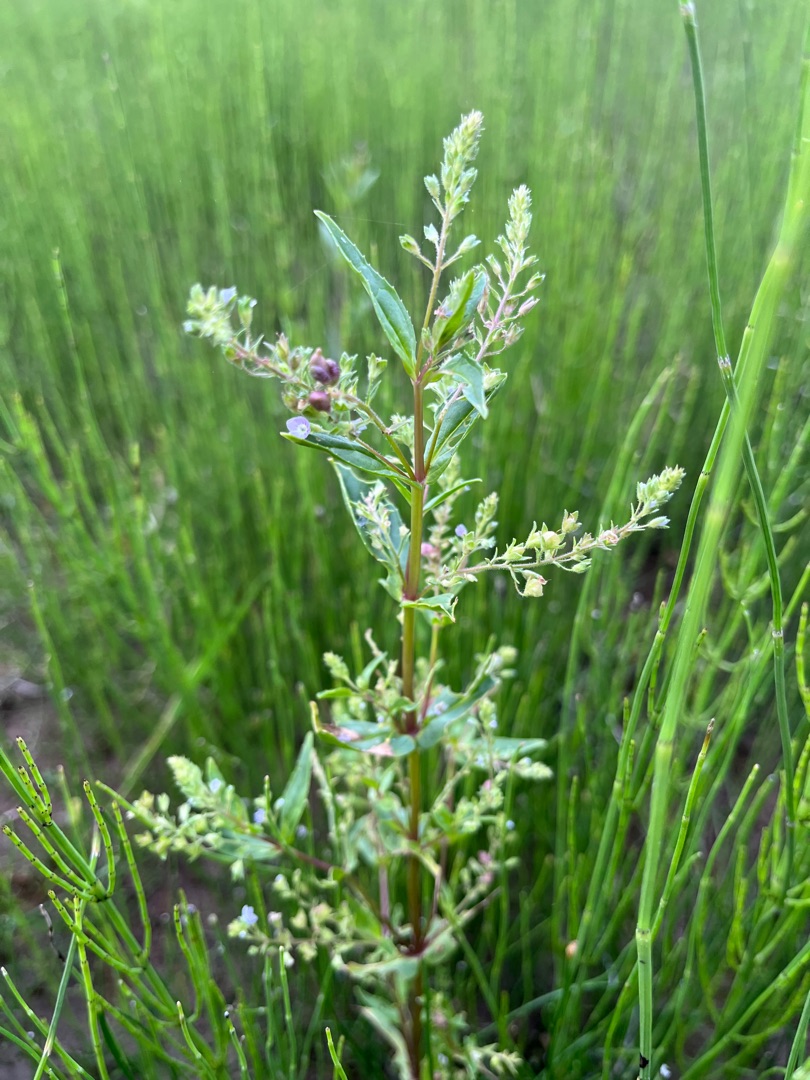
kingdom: Plantae
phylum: Tracheophyta
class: Magnoliopsida
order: Lamiales
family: Plantaginaceae
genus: Veronica
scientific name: Veronica catenata
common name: Vand-ærenpris
